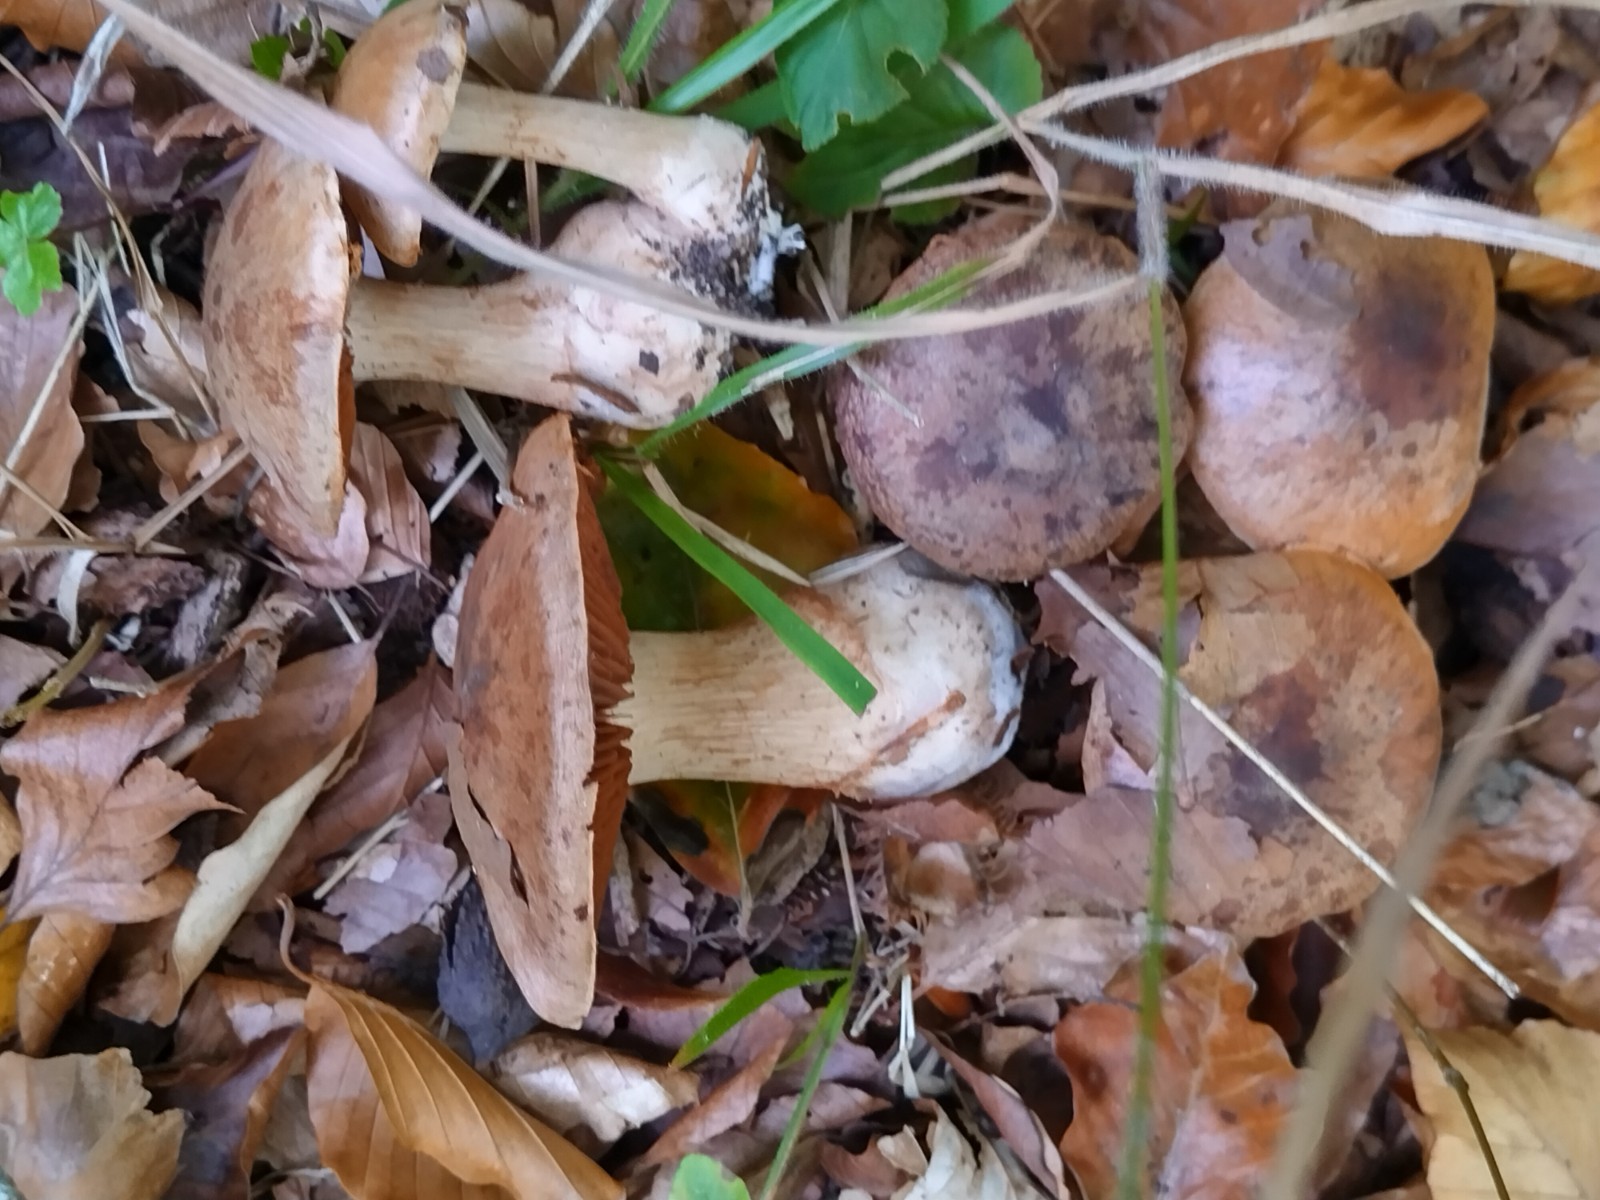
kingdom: Fungi
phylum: Basidiomycota
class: Agaricomycetes
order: Agaricales
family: Cortinariaceae
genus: Cortinarius
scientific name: Cortinarius
